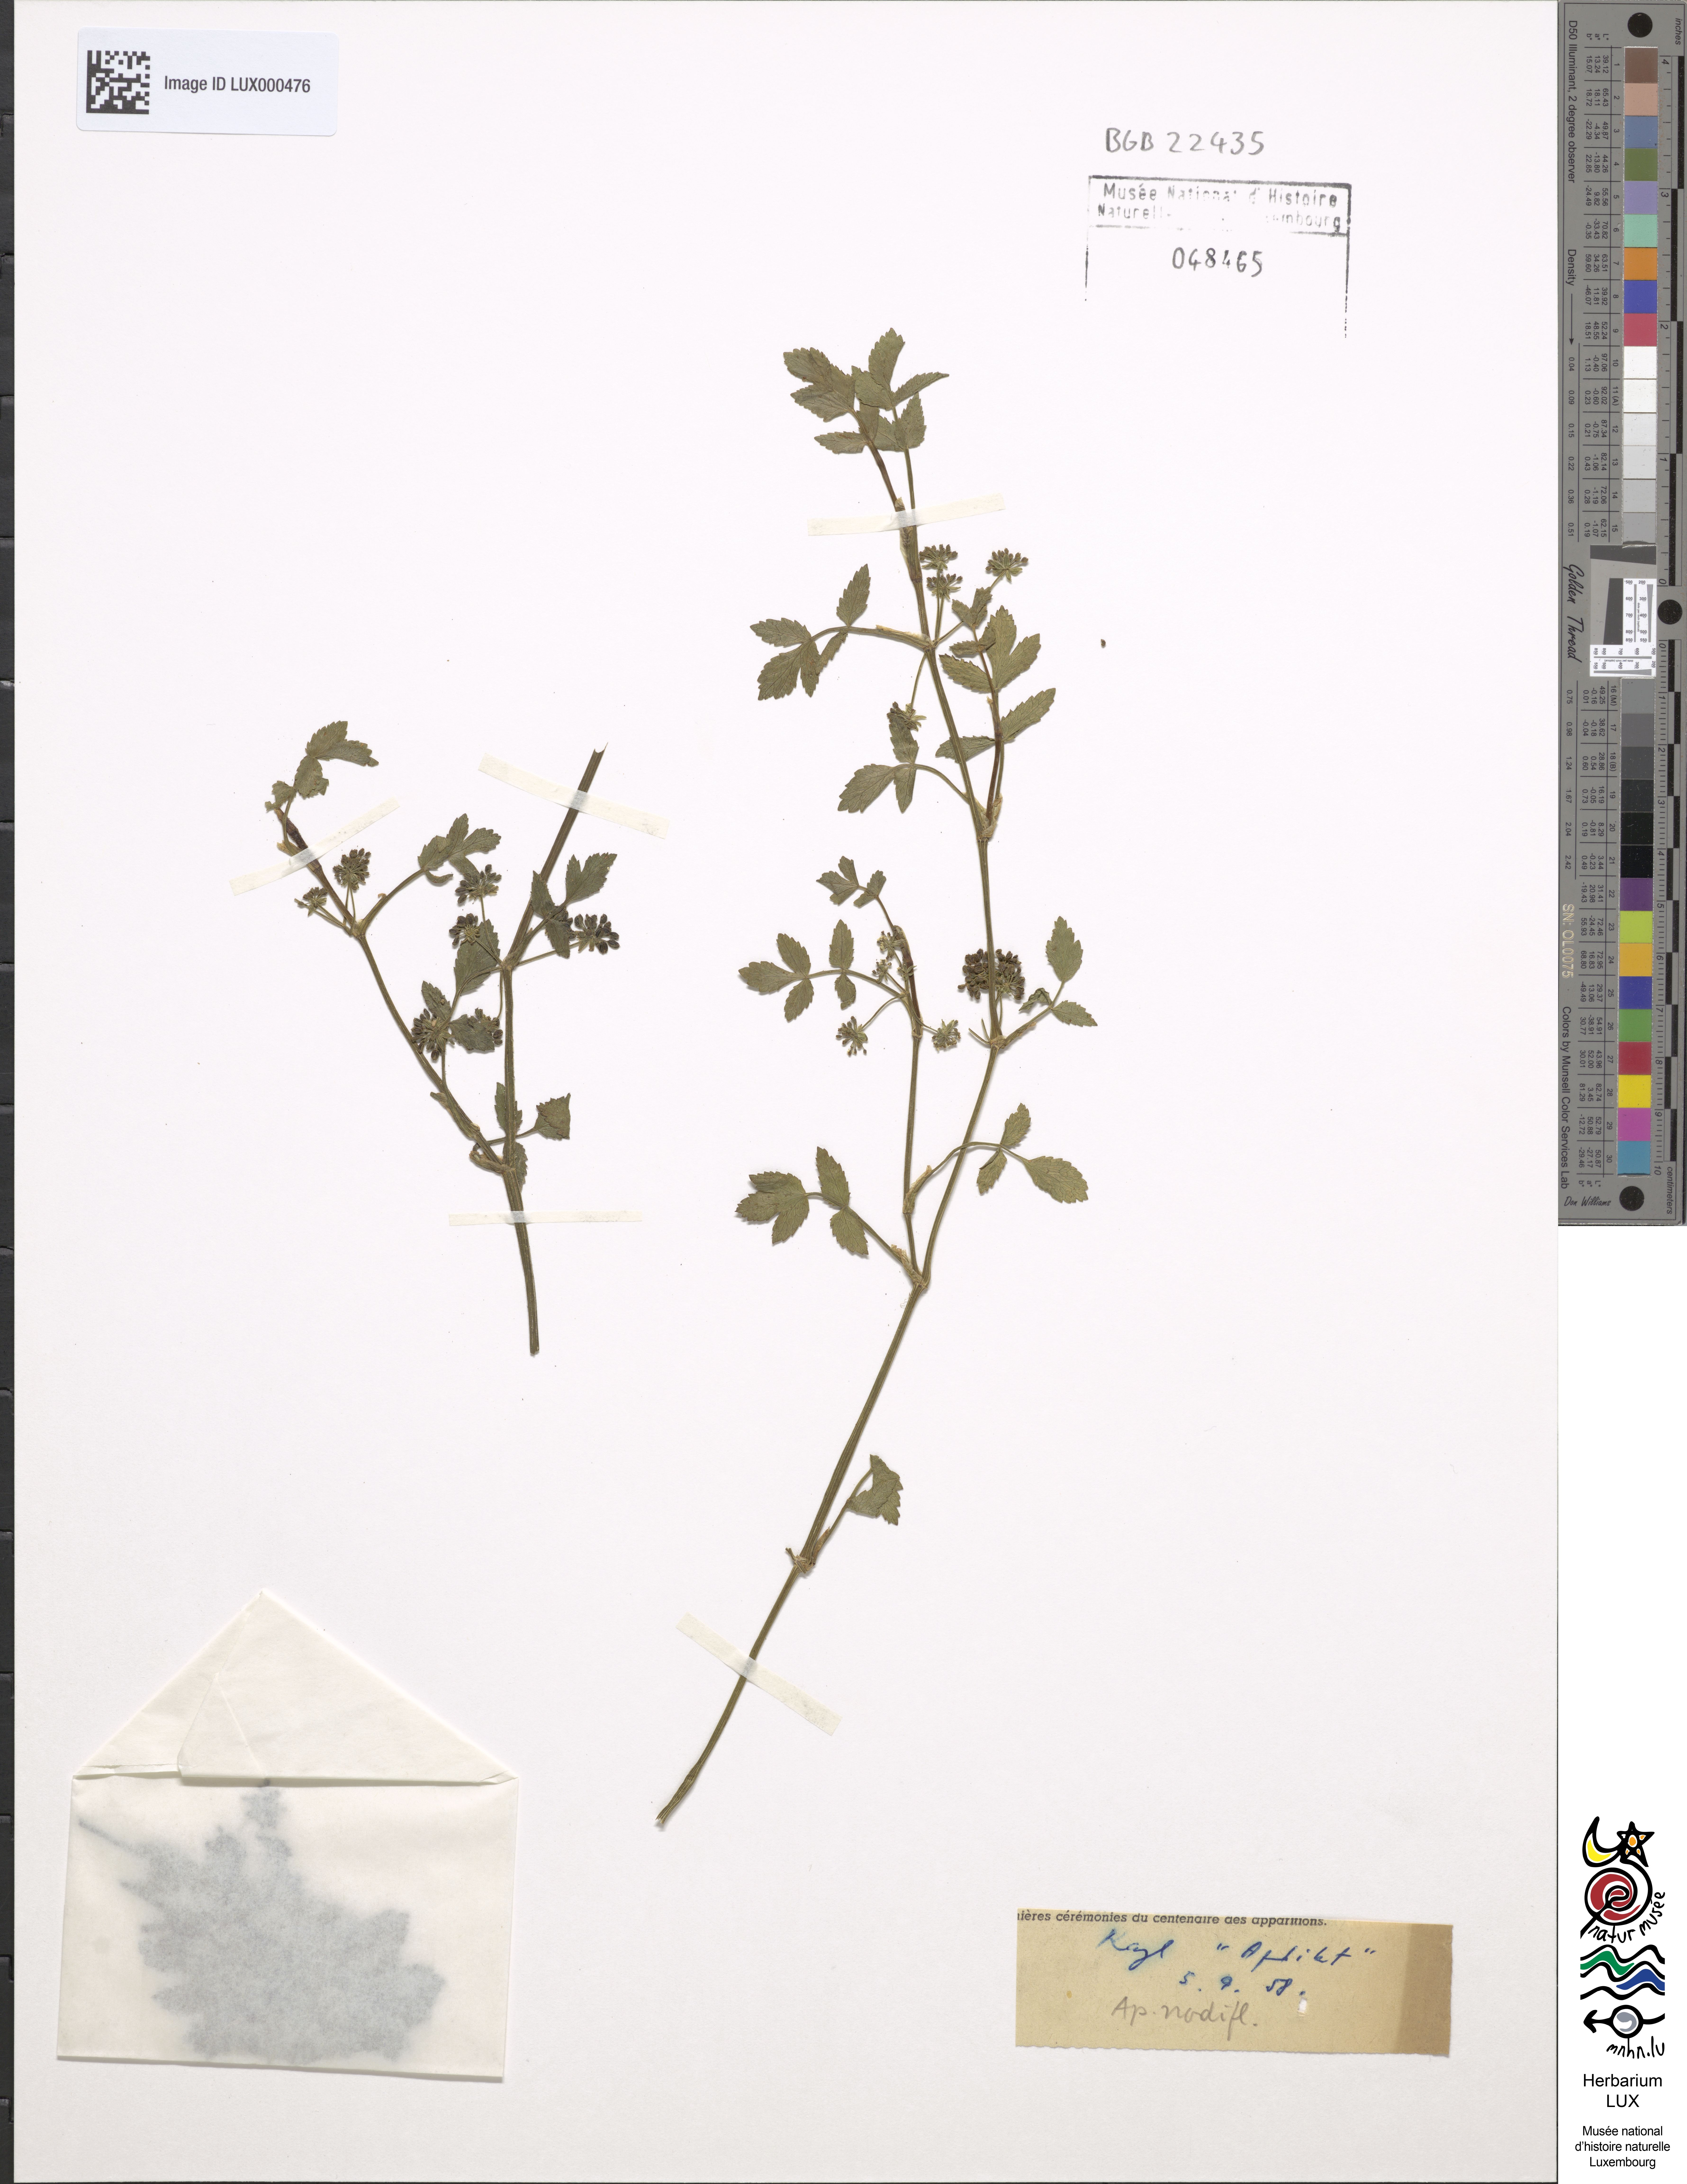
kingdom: Plantae
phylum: Tracheophyta
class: Magnoliopsida
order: Apiales
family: Apiaceae
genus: Helosciadium
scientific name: Helosciadium nodiflorum
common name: Fool's-watercress
